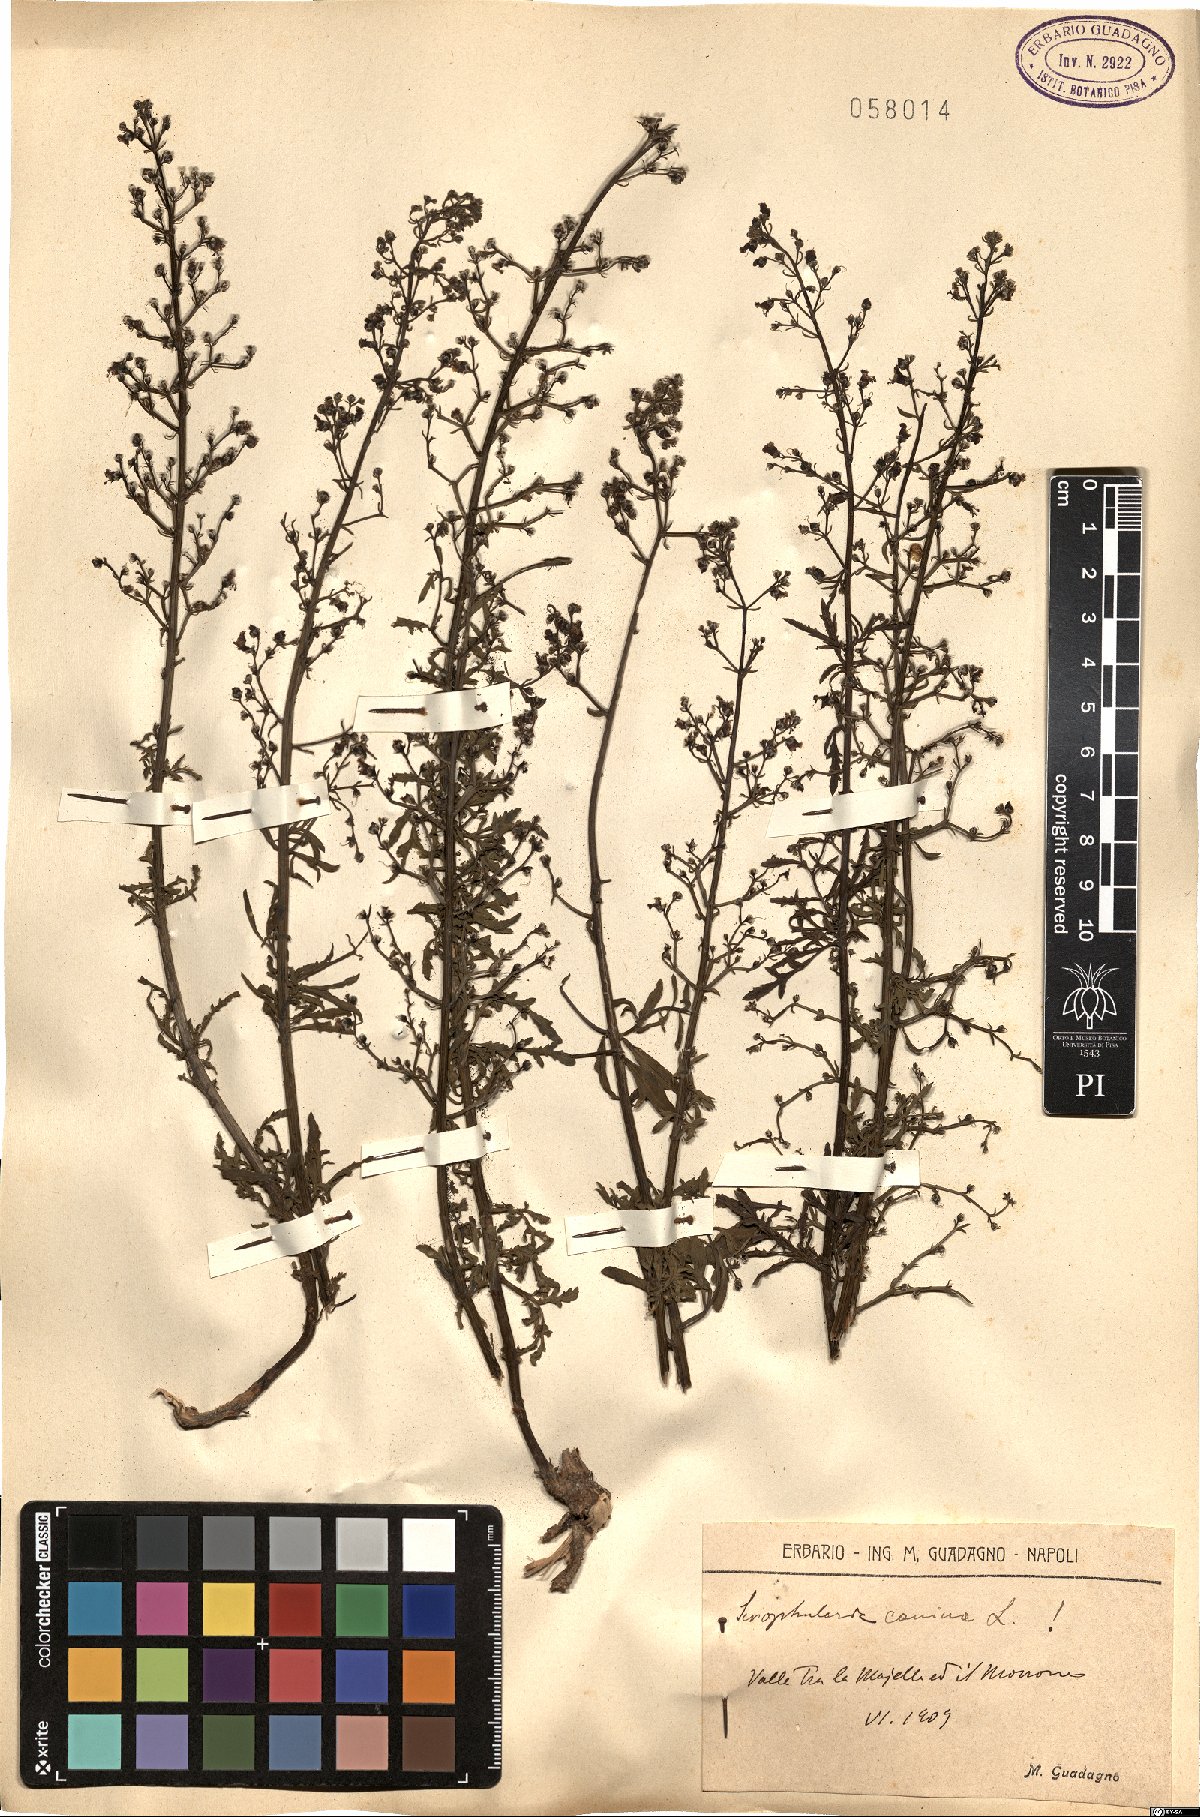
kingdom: Plantae
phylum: Tracheophyta
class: Magnoliopsida
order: Lamiales
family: Scrophulariaceae
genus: Scrophularia
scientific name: Scrophularia canina
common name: French figwort
